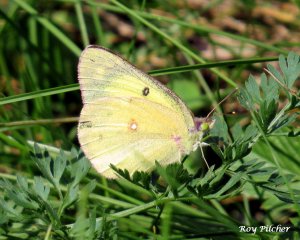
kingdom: Animalia
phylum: Arthropoda
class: Insecta
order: Lepidoptera
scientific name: Lepidoptera
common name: Butterflies
